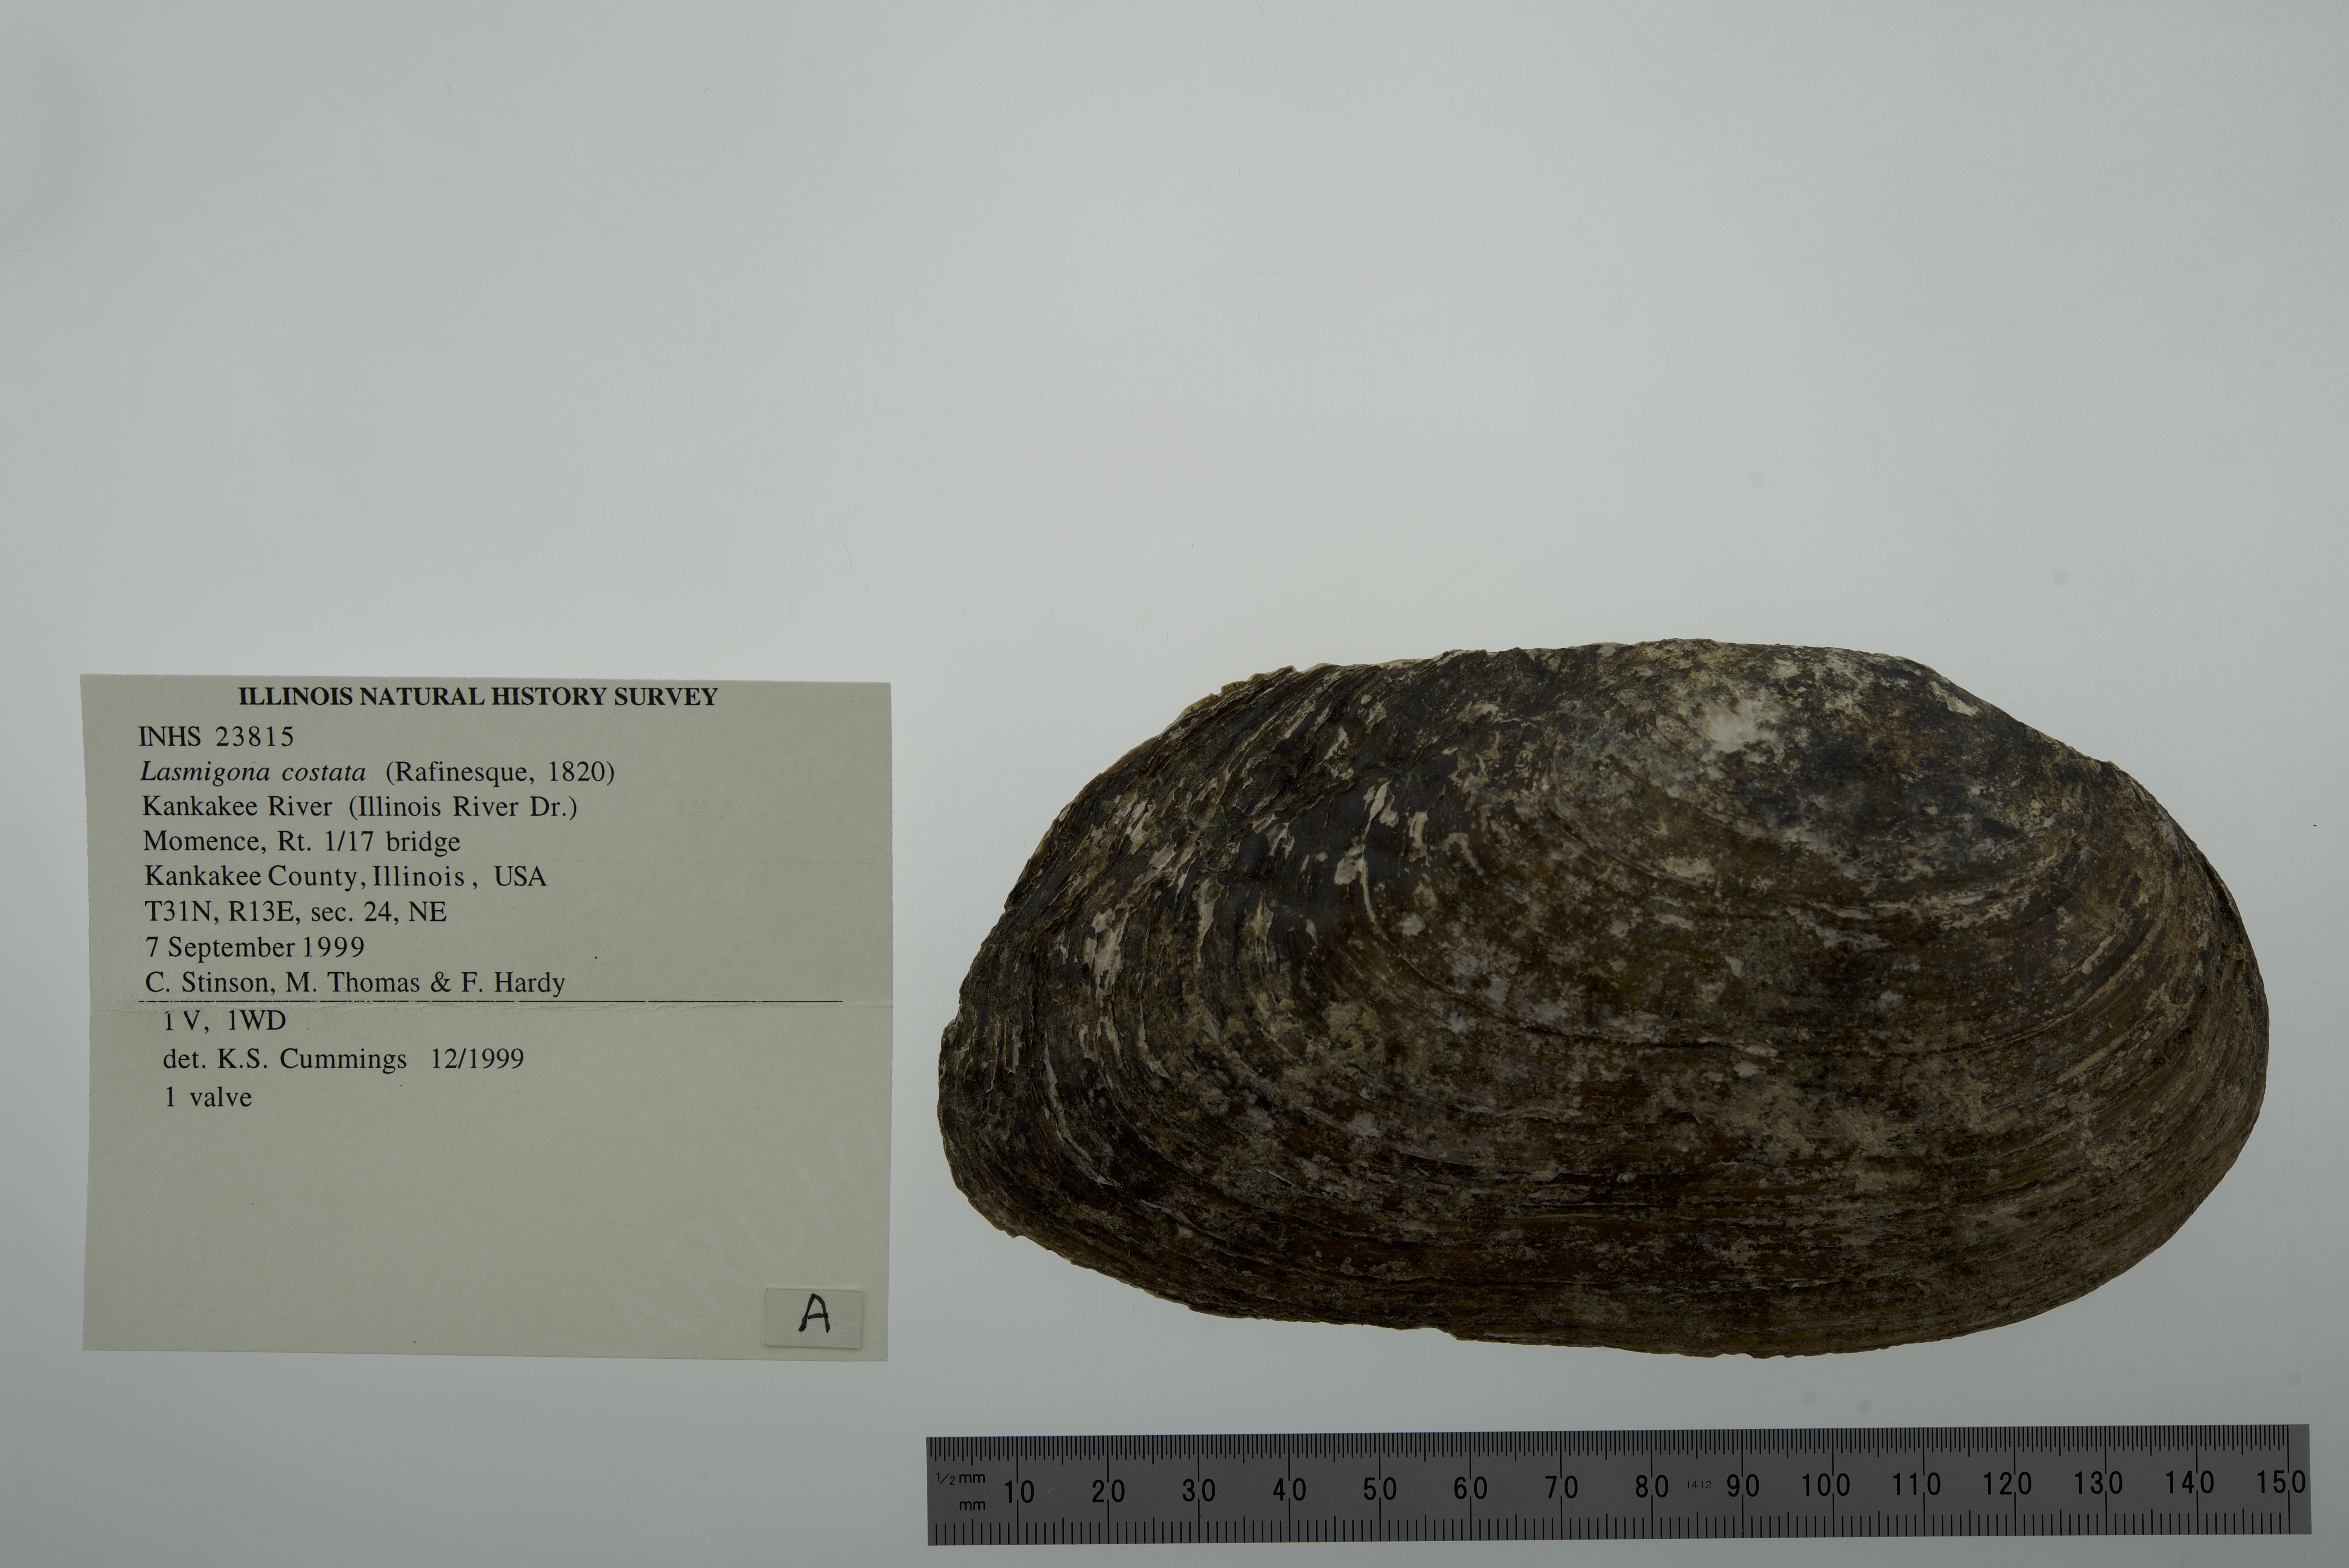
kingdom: Animalia
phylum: Mollusca
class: Bivalvia
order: Unionida
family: Unionidae
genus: Lasmigona
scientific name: Lasmigona costata
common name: Flutedshell
